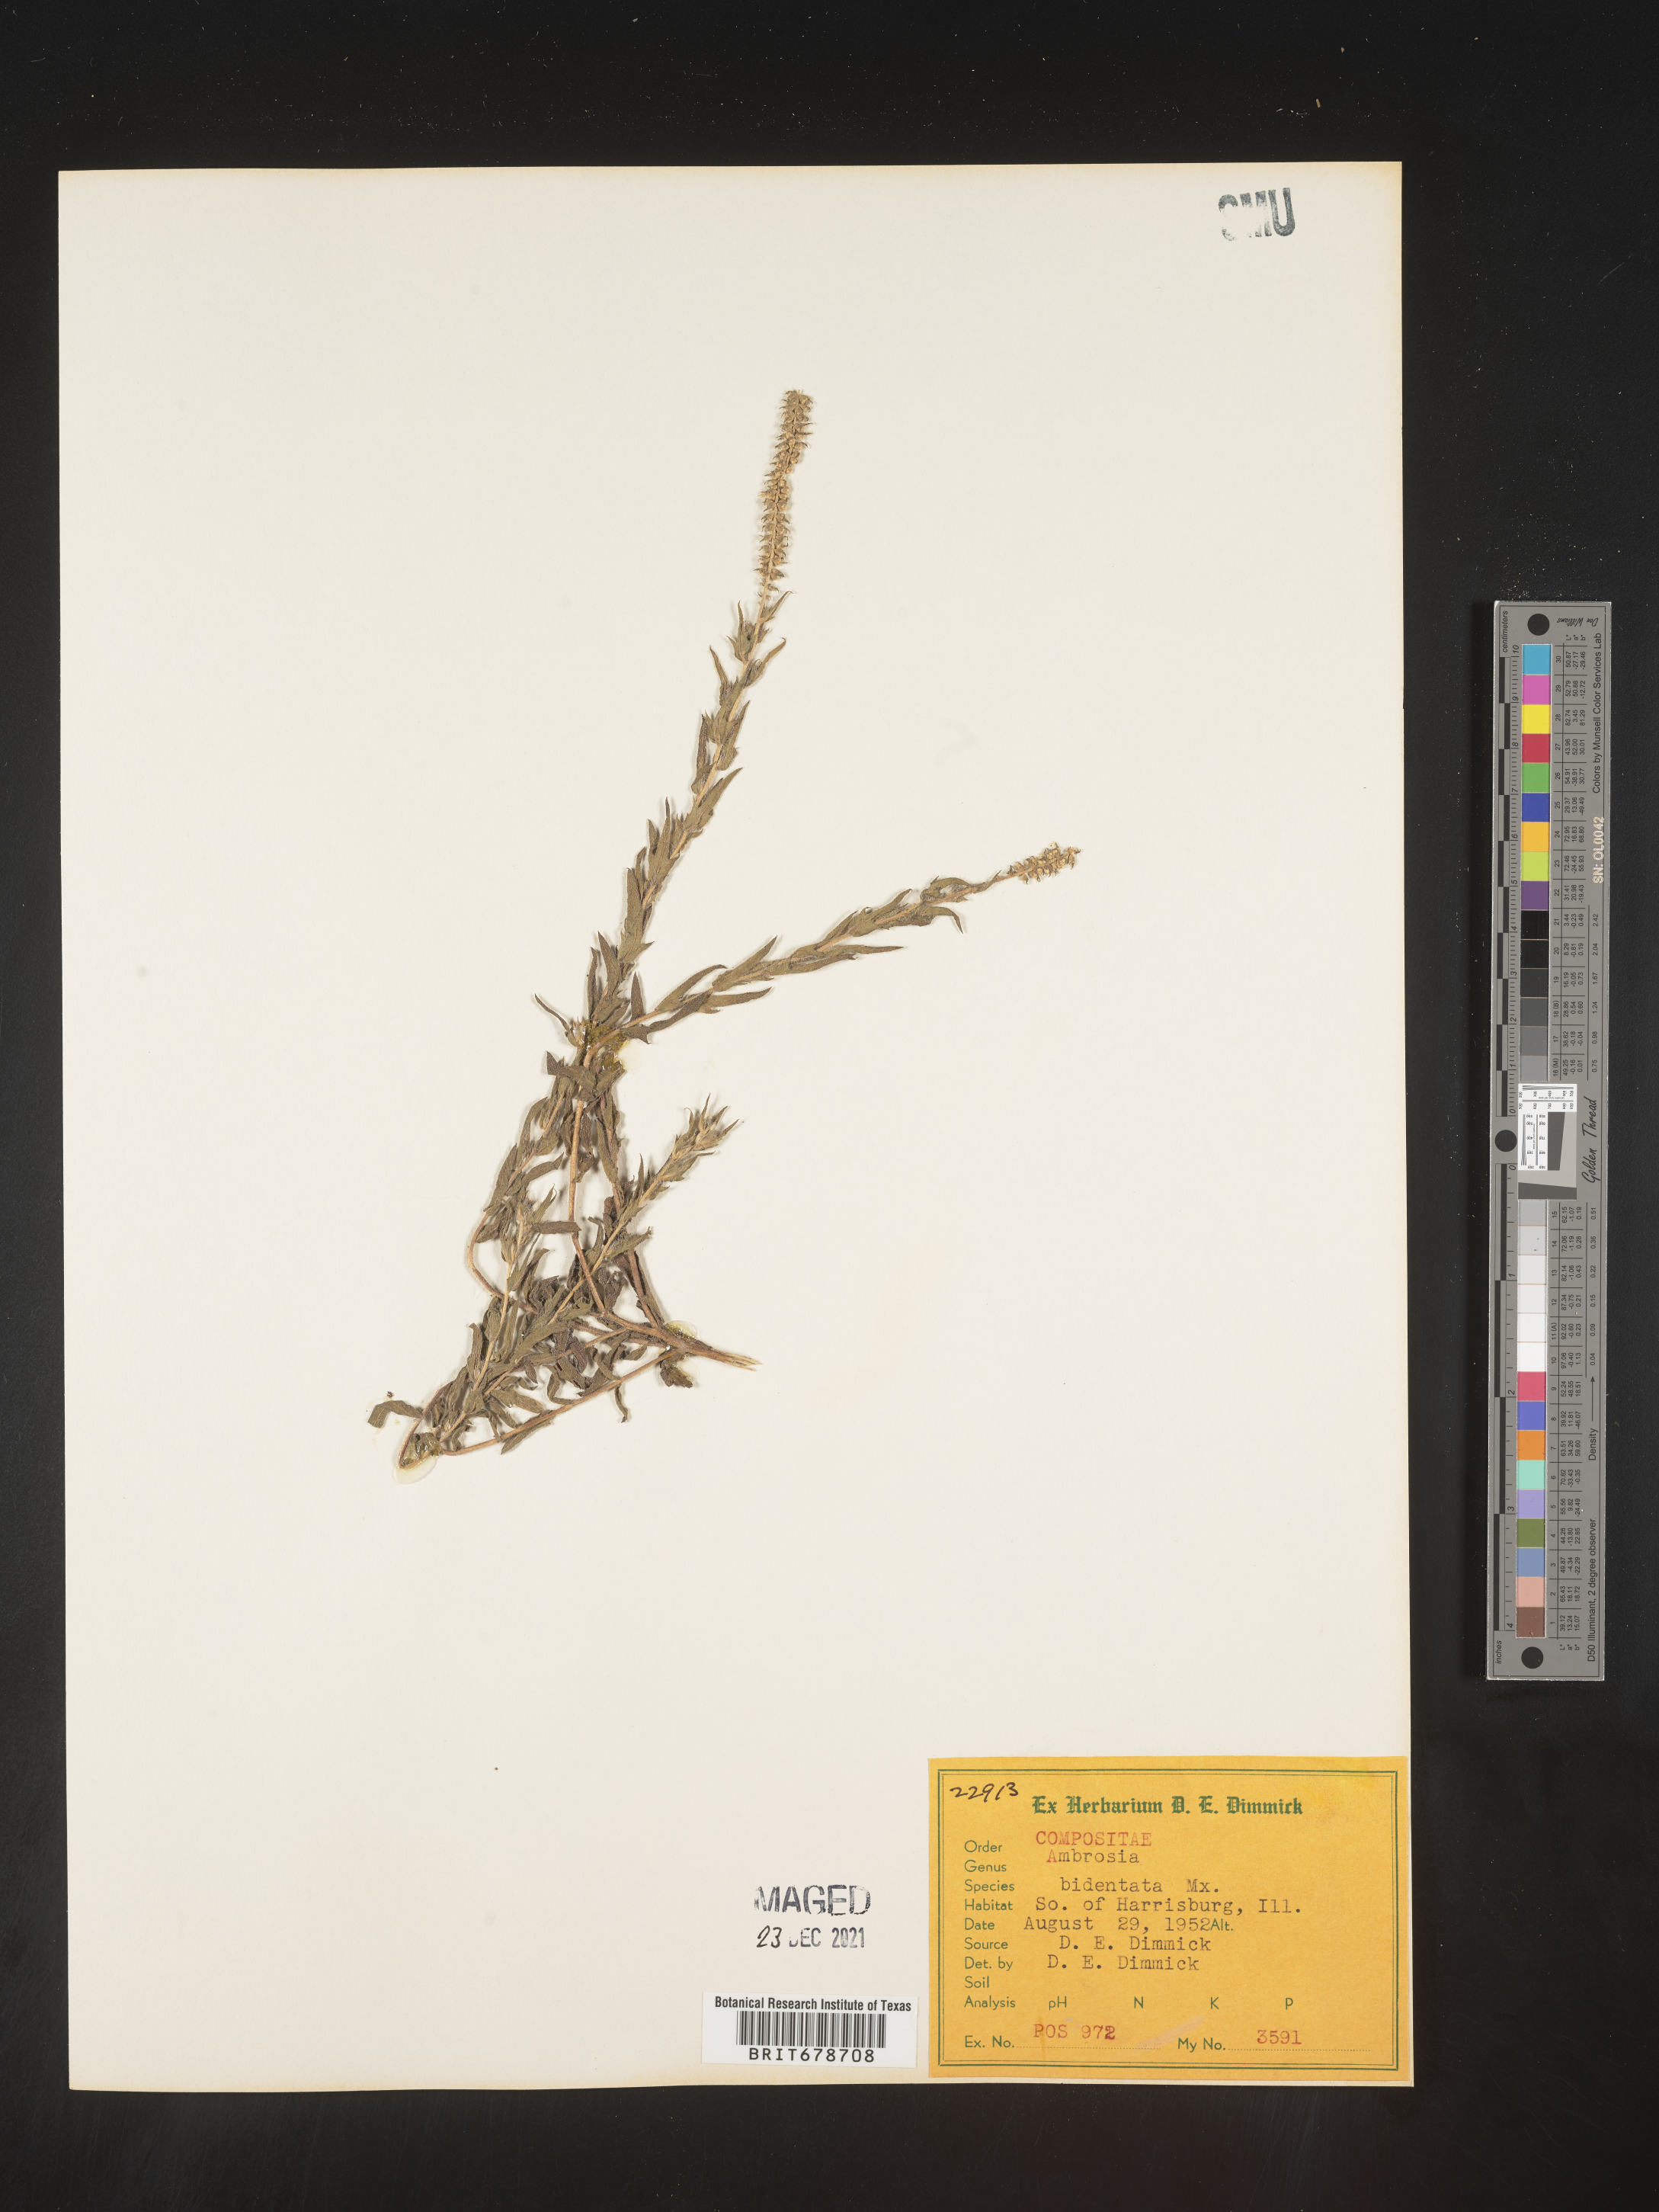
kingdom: Plantae
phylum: Tracheophyta
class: Magnoliopsida
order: Asterales
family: Asteraceae
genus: Ambrosia
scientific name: Ambrosia bidentata
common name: Southern ragweed
